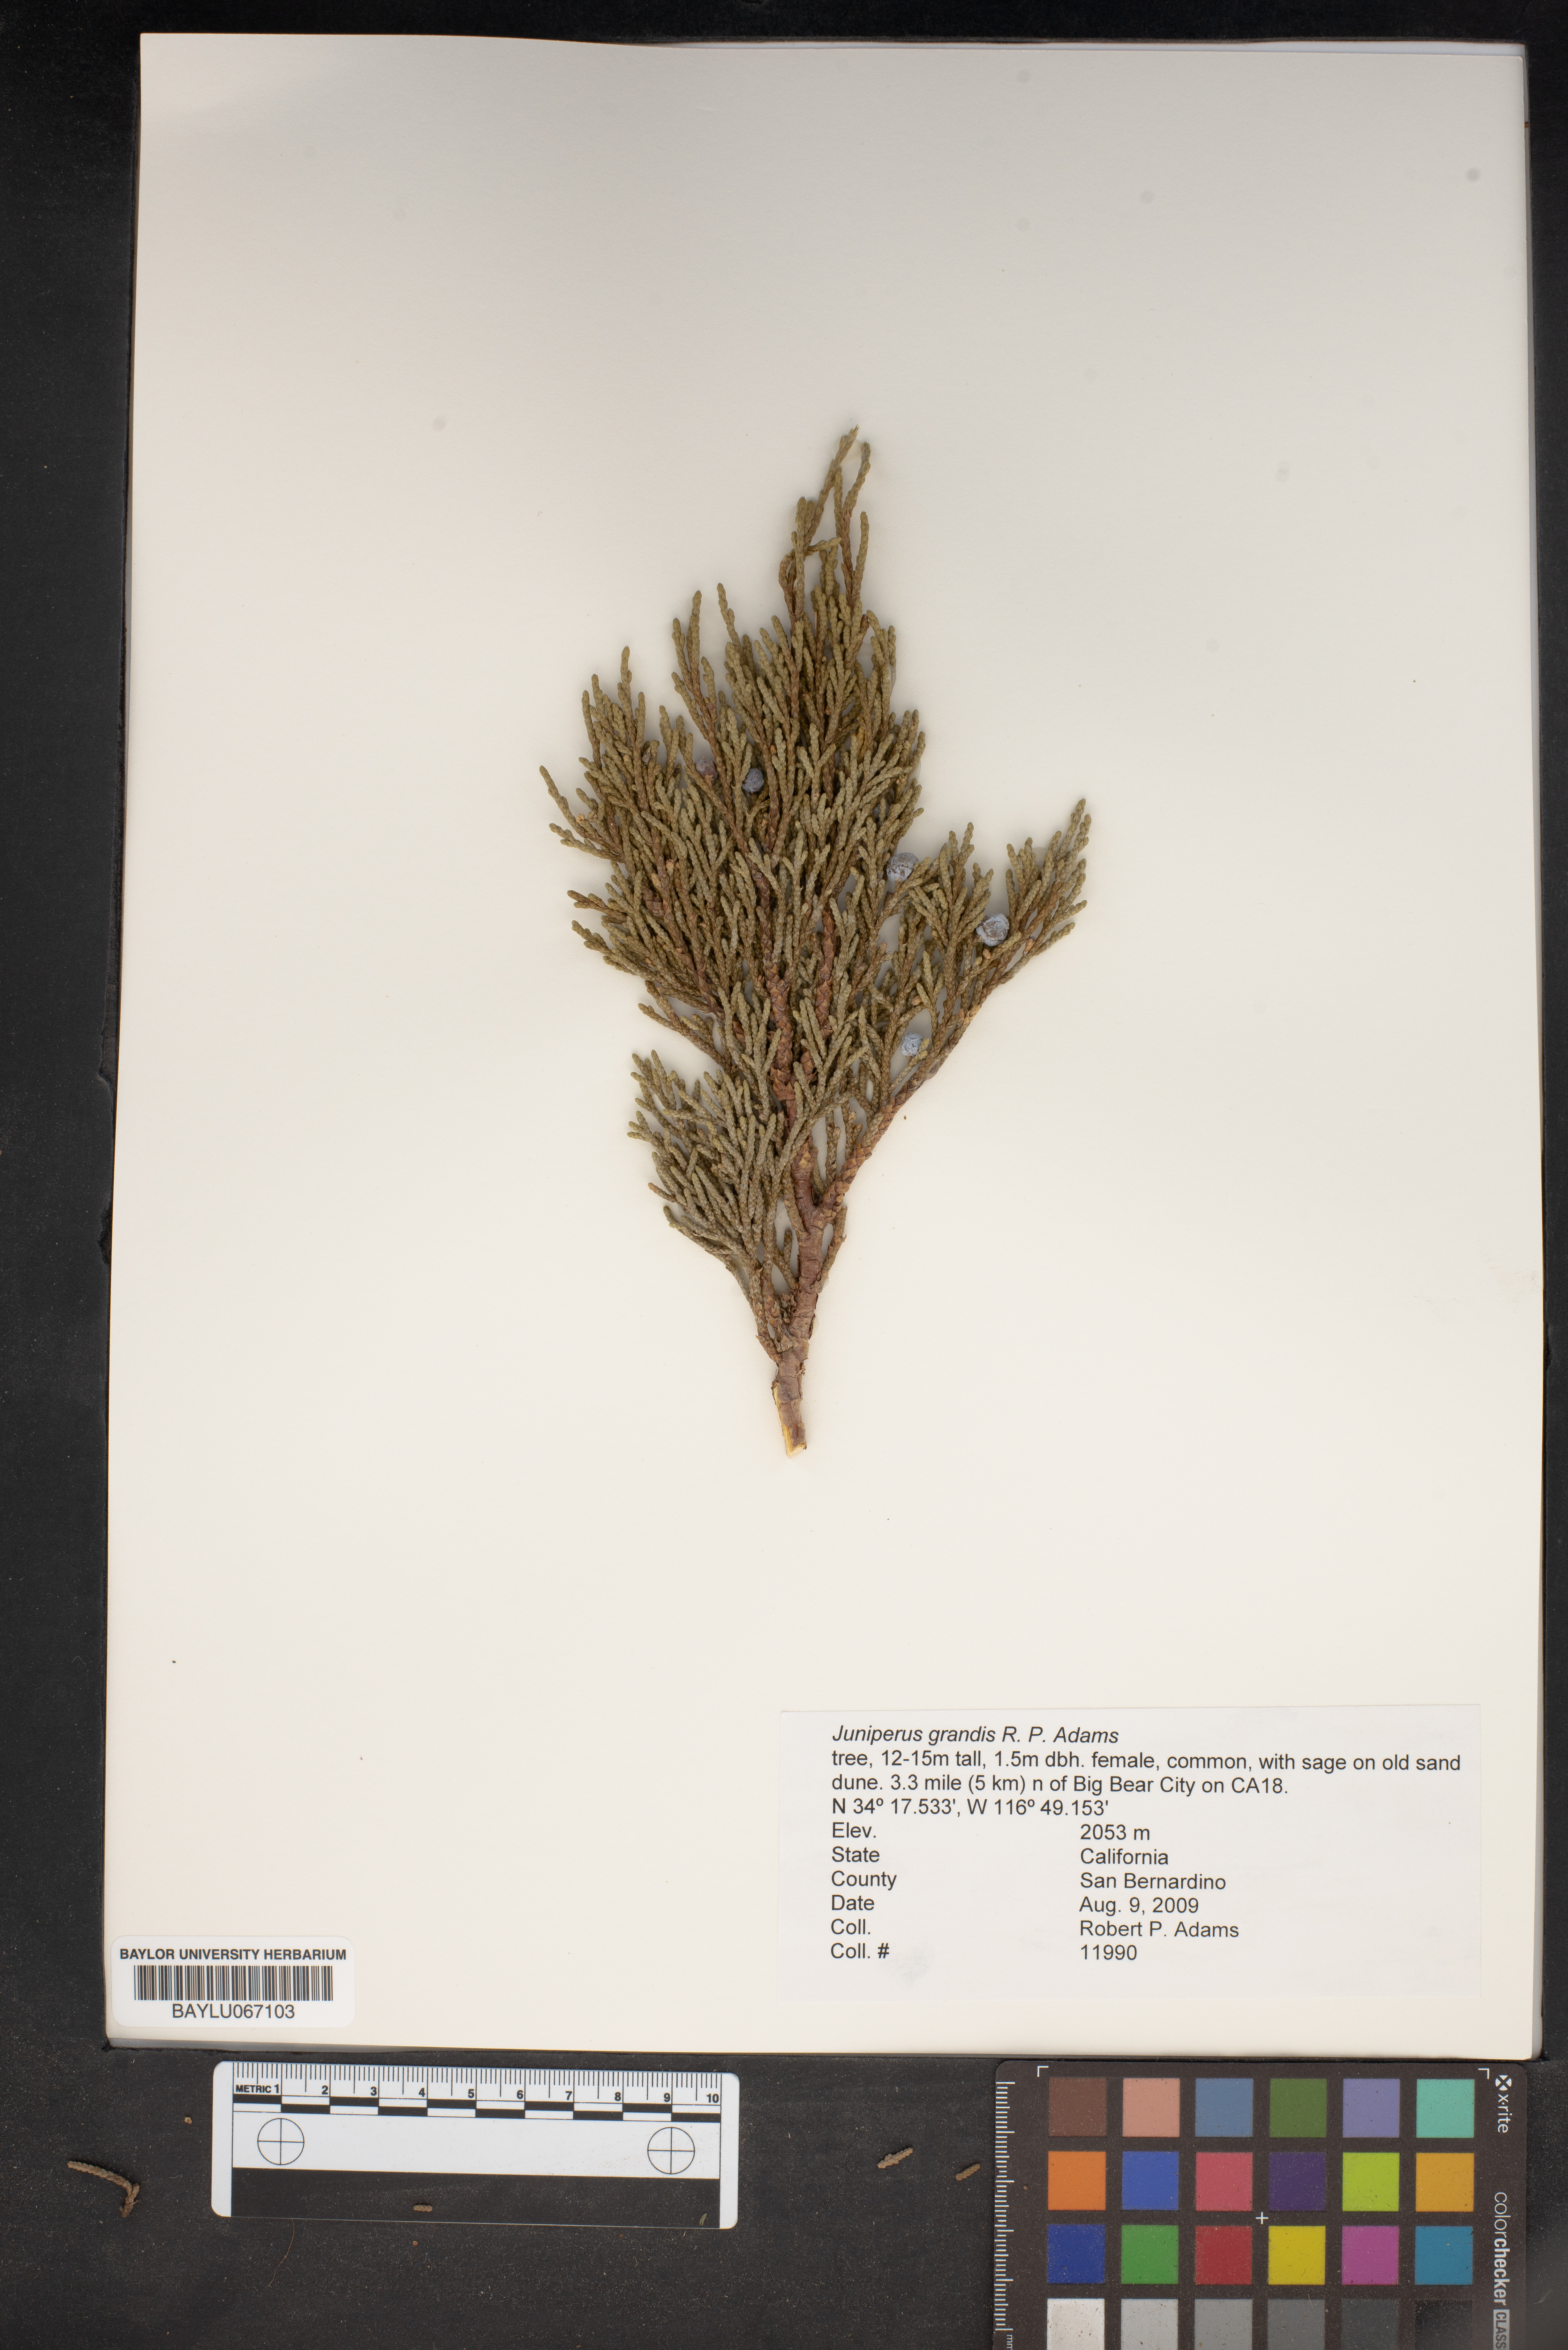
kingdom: Plantae
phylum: Tracheophyta
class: Pinopsida
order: Pinales
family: Cupressaceae
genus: Juniperus
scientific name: Juniperus occidentalis
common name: Western juniper
